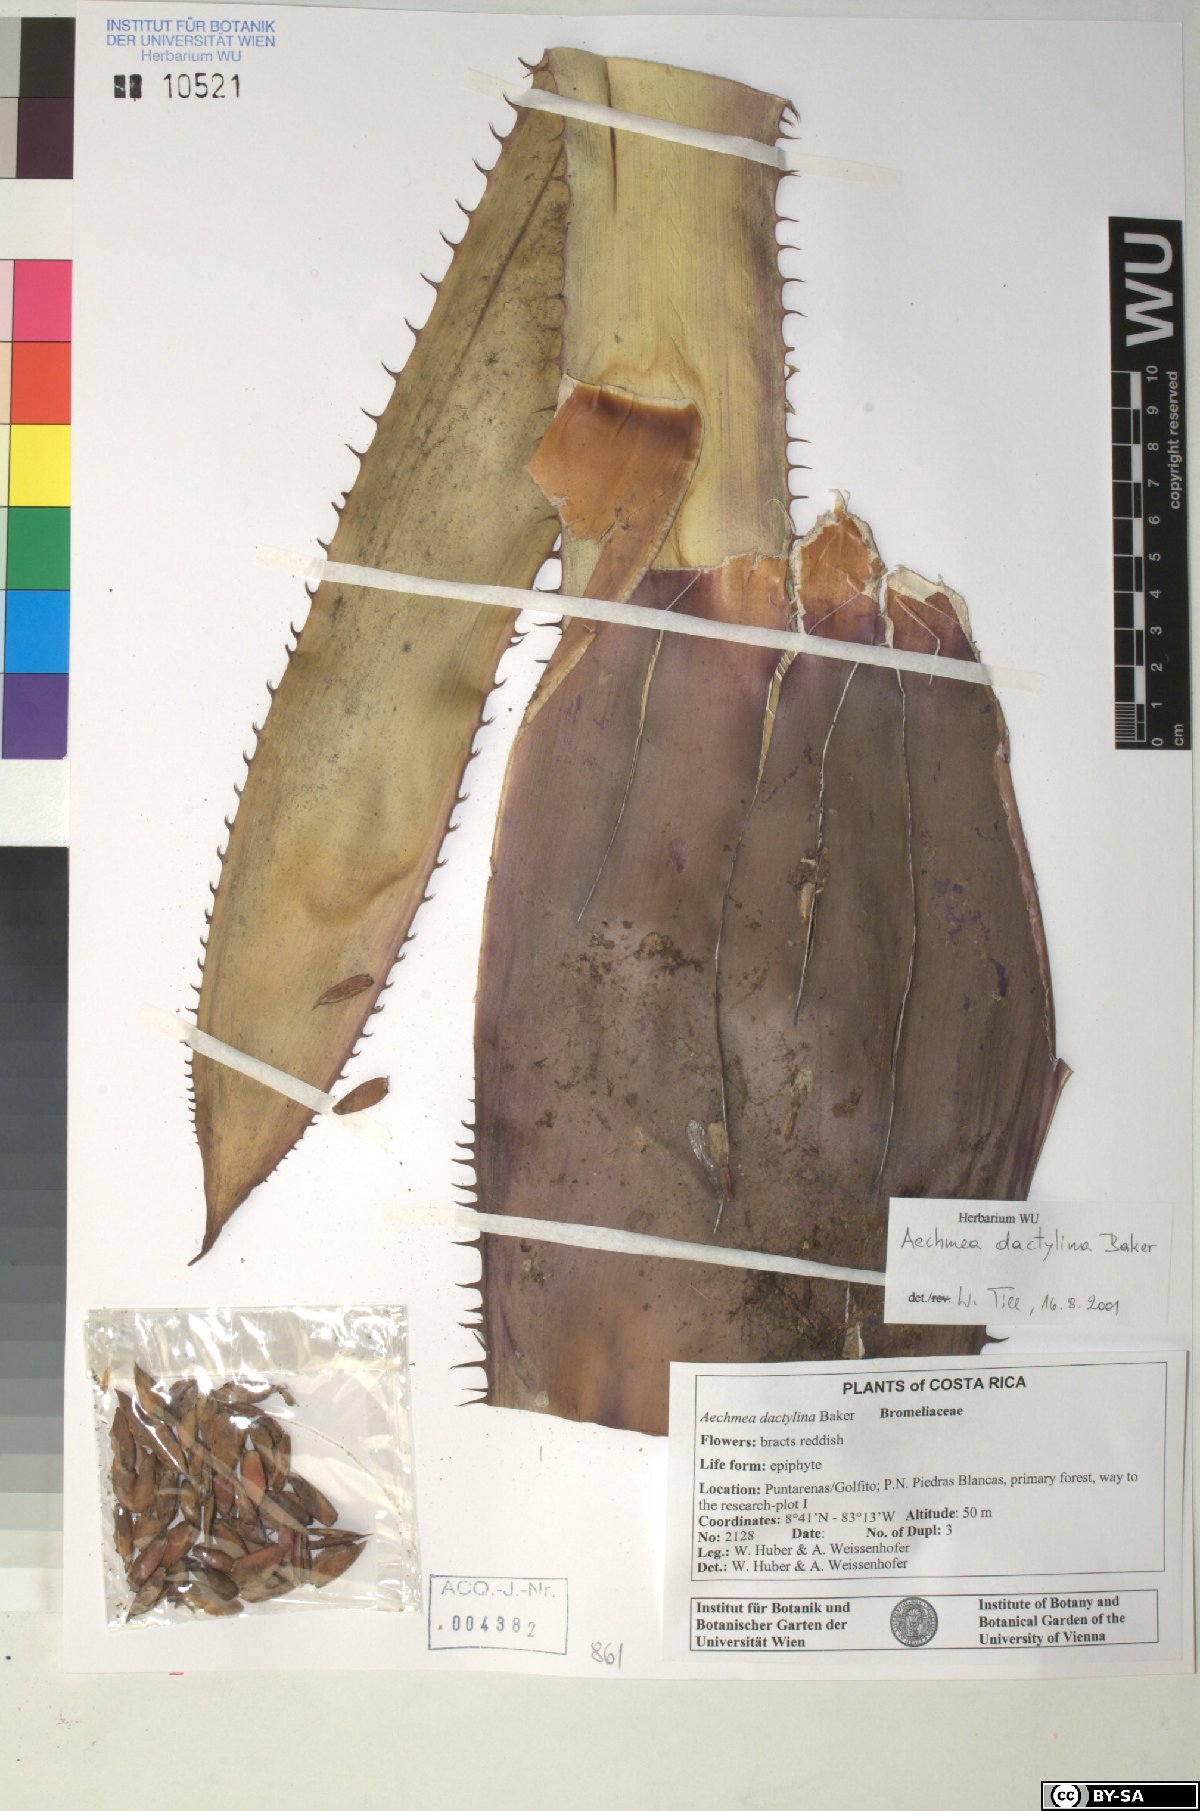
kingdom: Plantae
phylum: Tracheophyta
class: Liliopsida
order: Poales
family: Bromeliaceae
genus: Aechmea
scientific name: Aechmea dactylina
